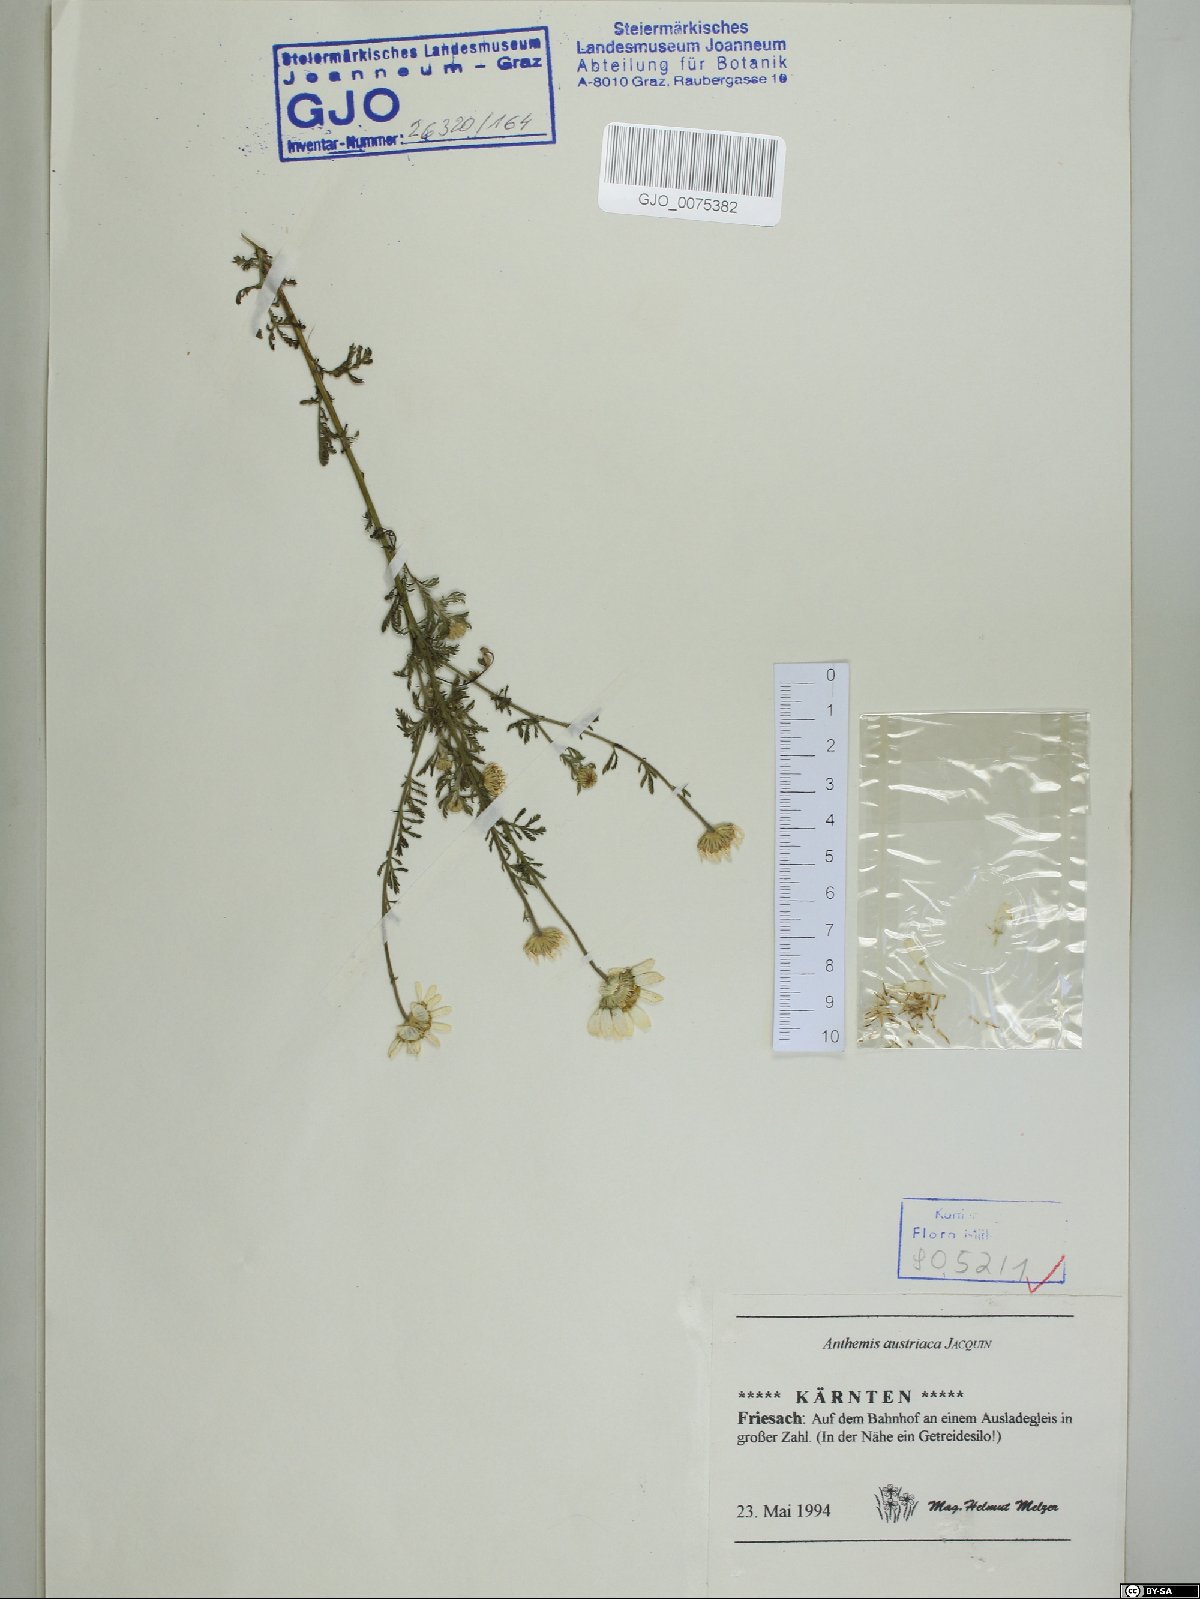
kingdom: Plantae
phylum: Tracheophyta
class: Magnoliopsida
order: Asterales
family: Asteraceae
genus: Cota
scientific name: Cota austriaca
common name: Austrian chamomile
